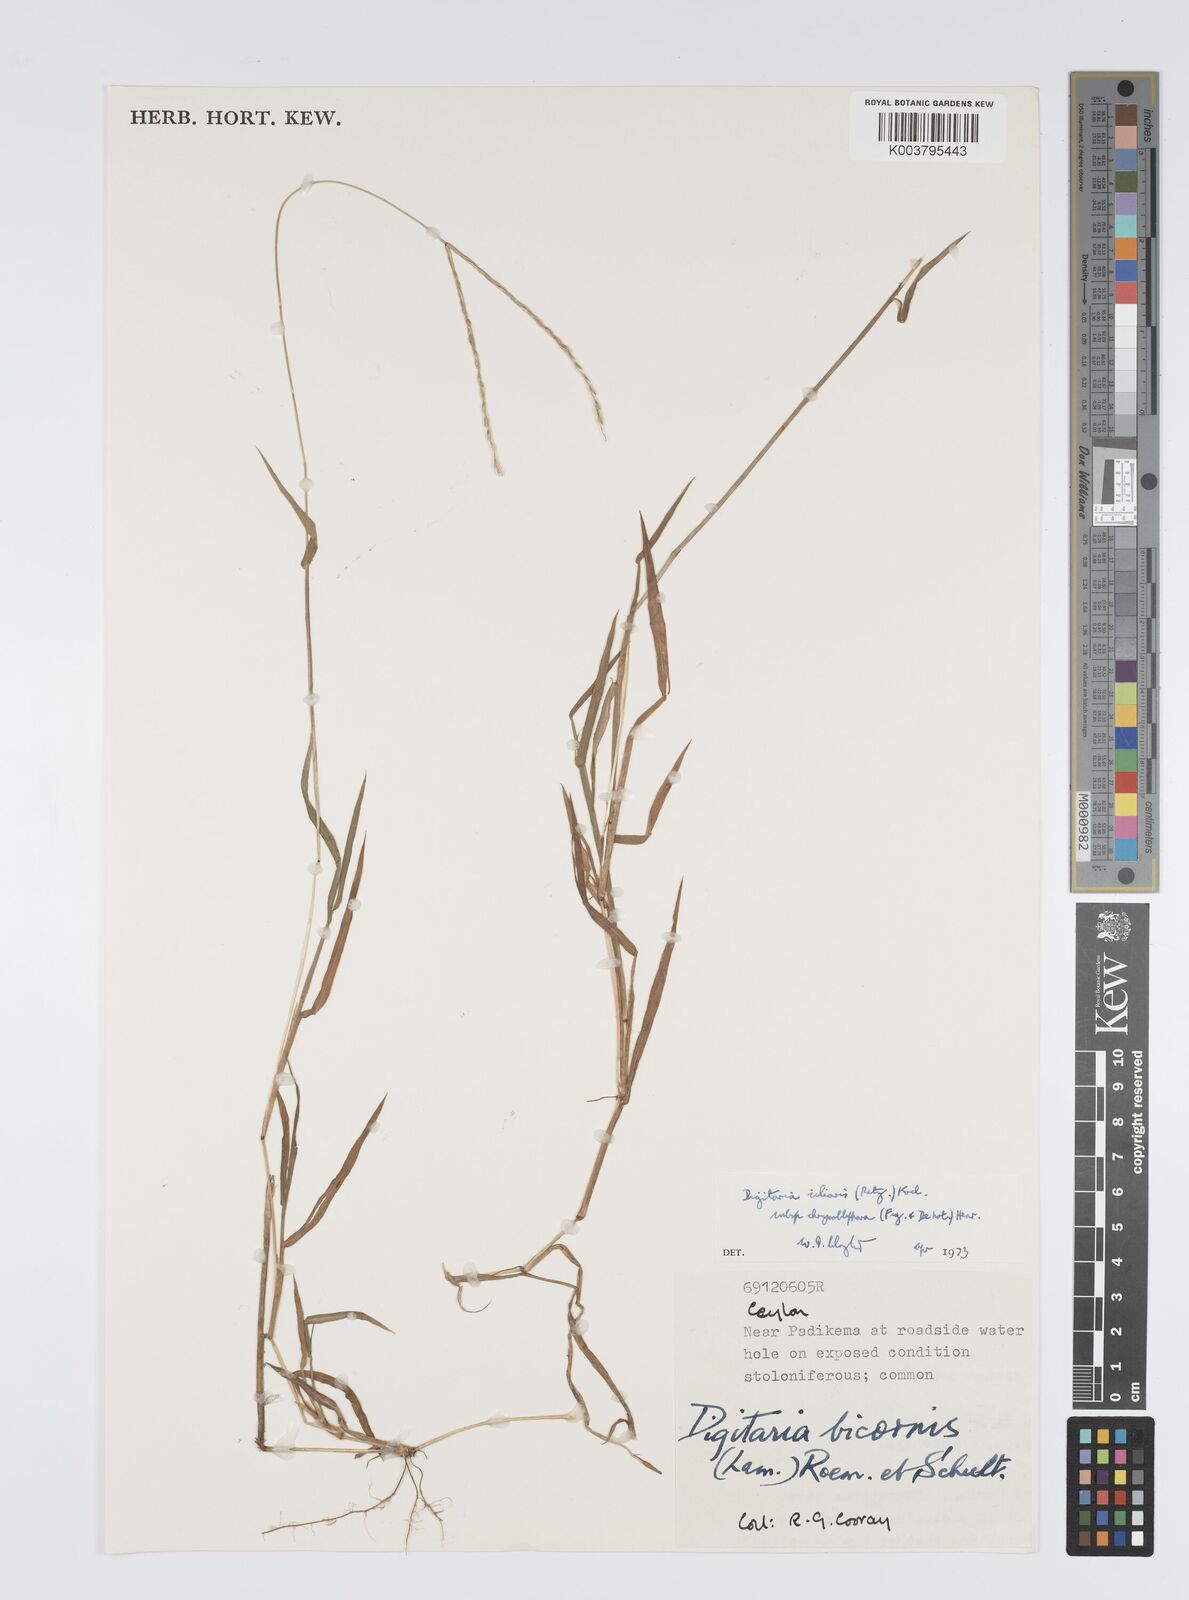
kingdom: Plantae
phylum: Tracheophyta
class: Liliopsida
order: Poales
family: Poaceae
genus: Digitaria
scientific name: Digitaria bicornis
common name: Asian crabgrass
